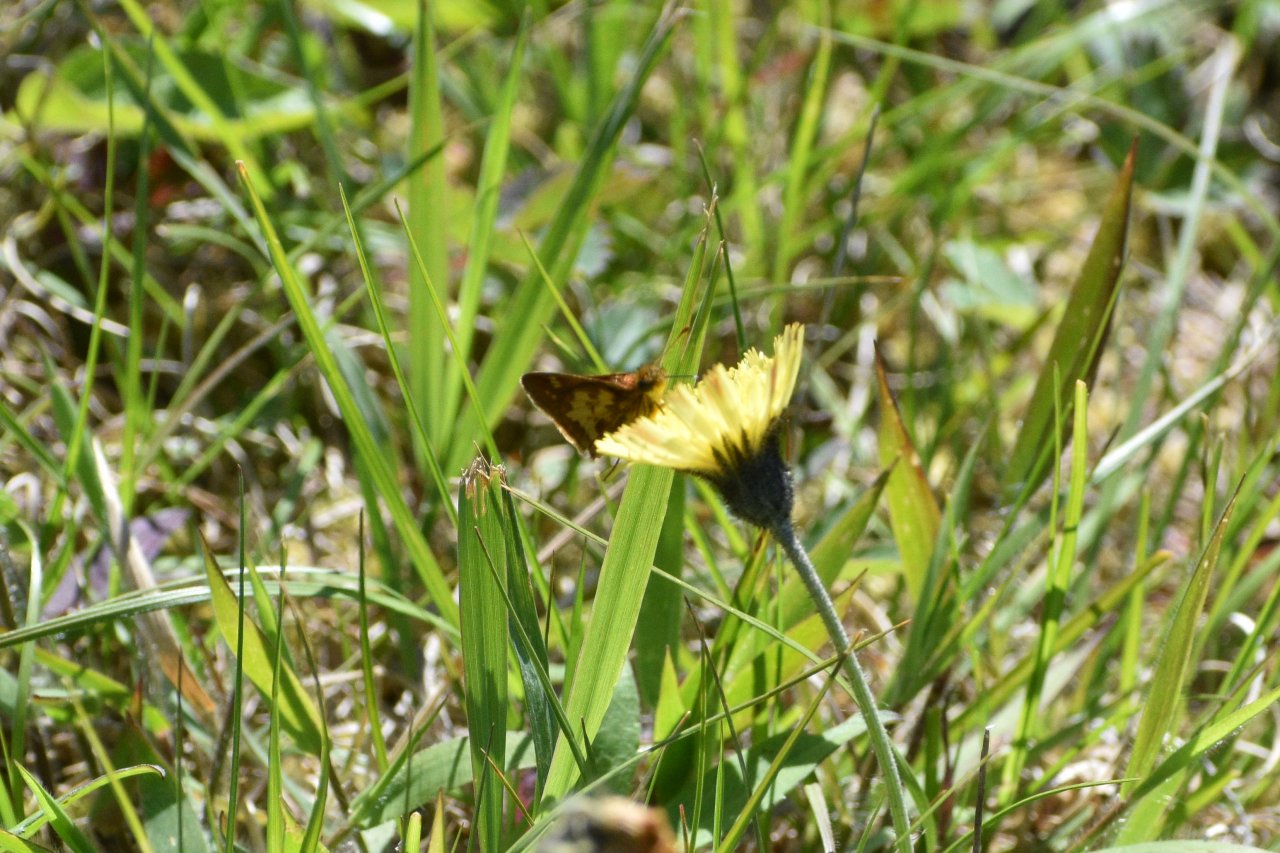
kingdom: Animalia
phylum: Arthropoda
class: Insecta
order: Lepidoptera
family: Hesperiidae
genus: Polites
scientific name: Polites coras
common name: Peck's Skipper
